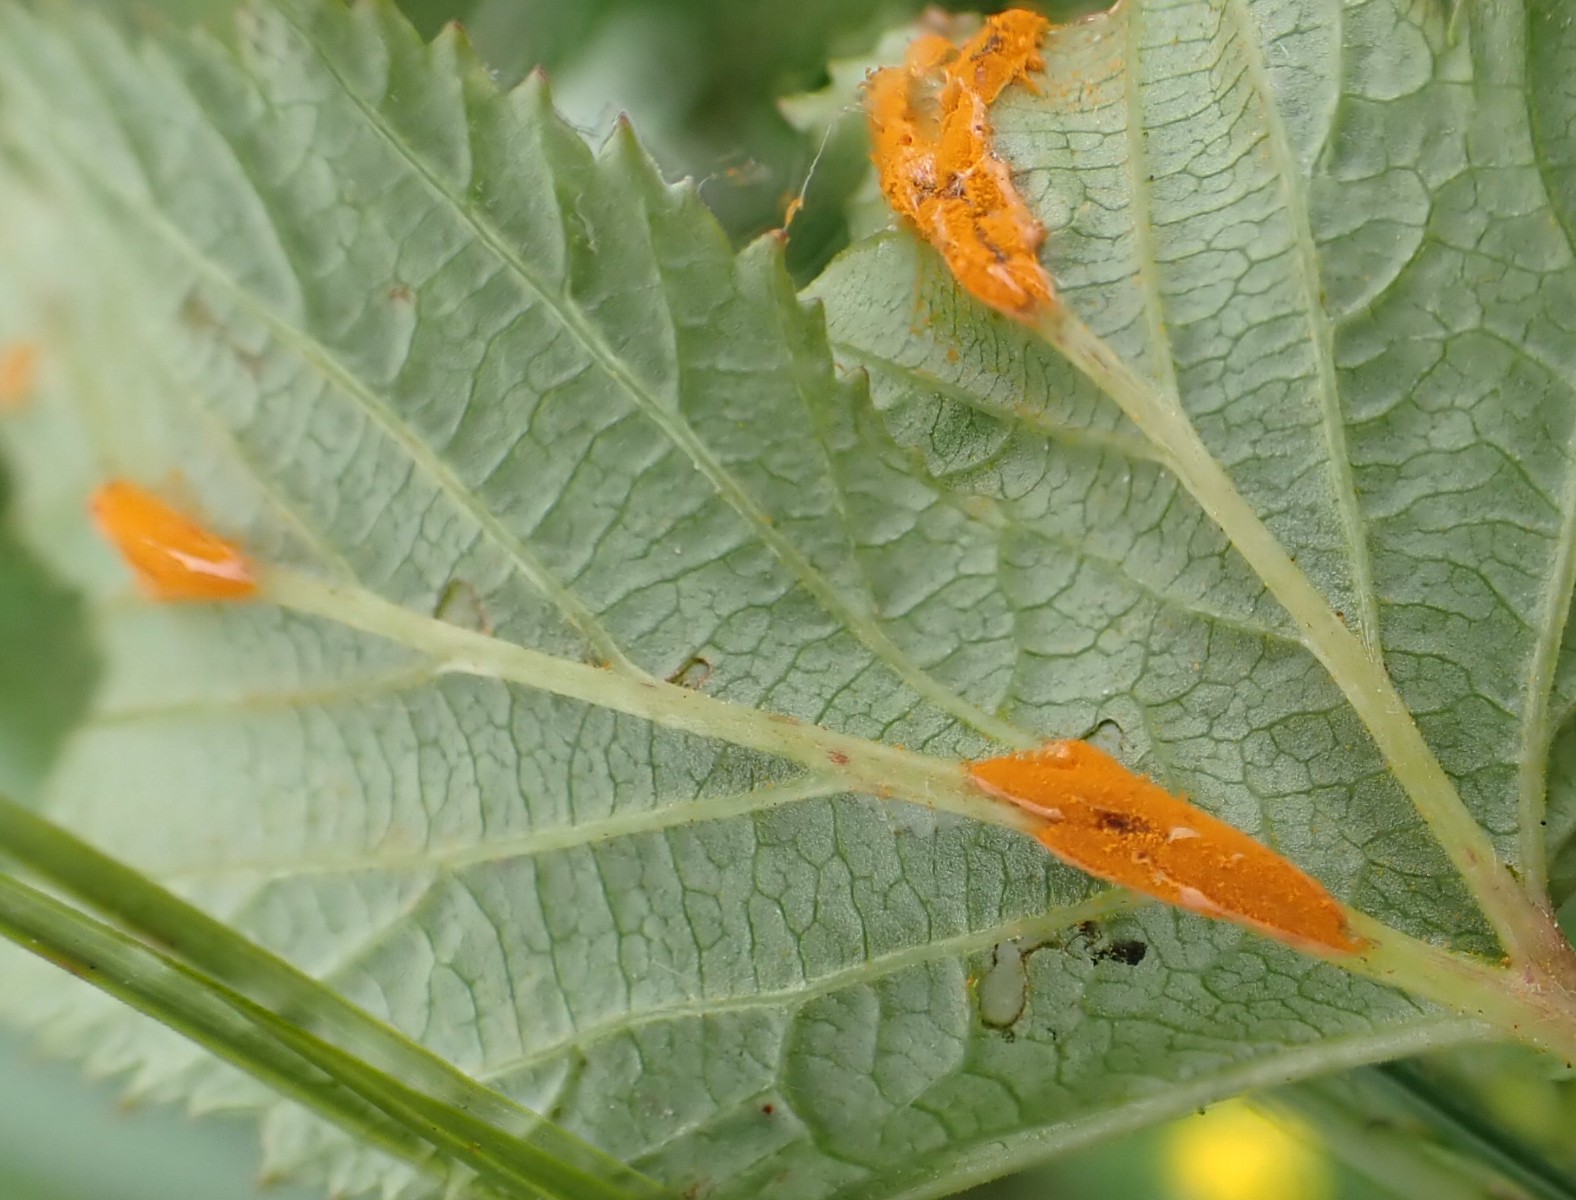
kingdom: Fungi
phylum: Basidiomycota
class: Pucciniomycetes
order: Pucciniales
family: Raveneliaceae
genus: Triphragmium
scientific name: Triphragmium ulmariae
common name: almindelig mjødurtrust
